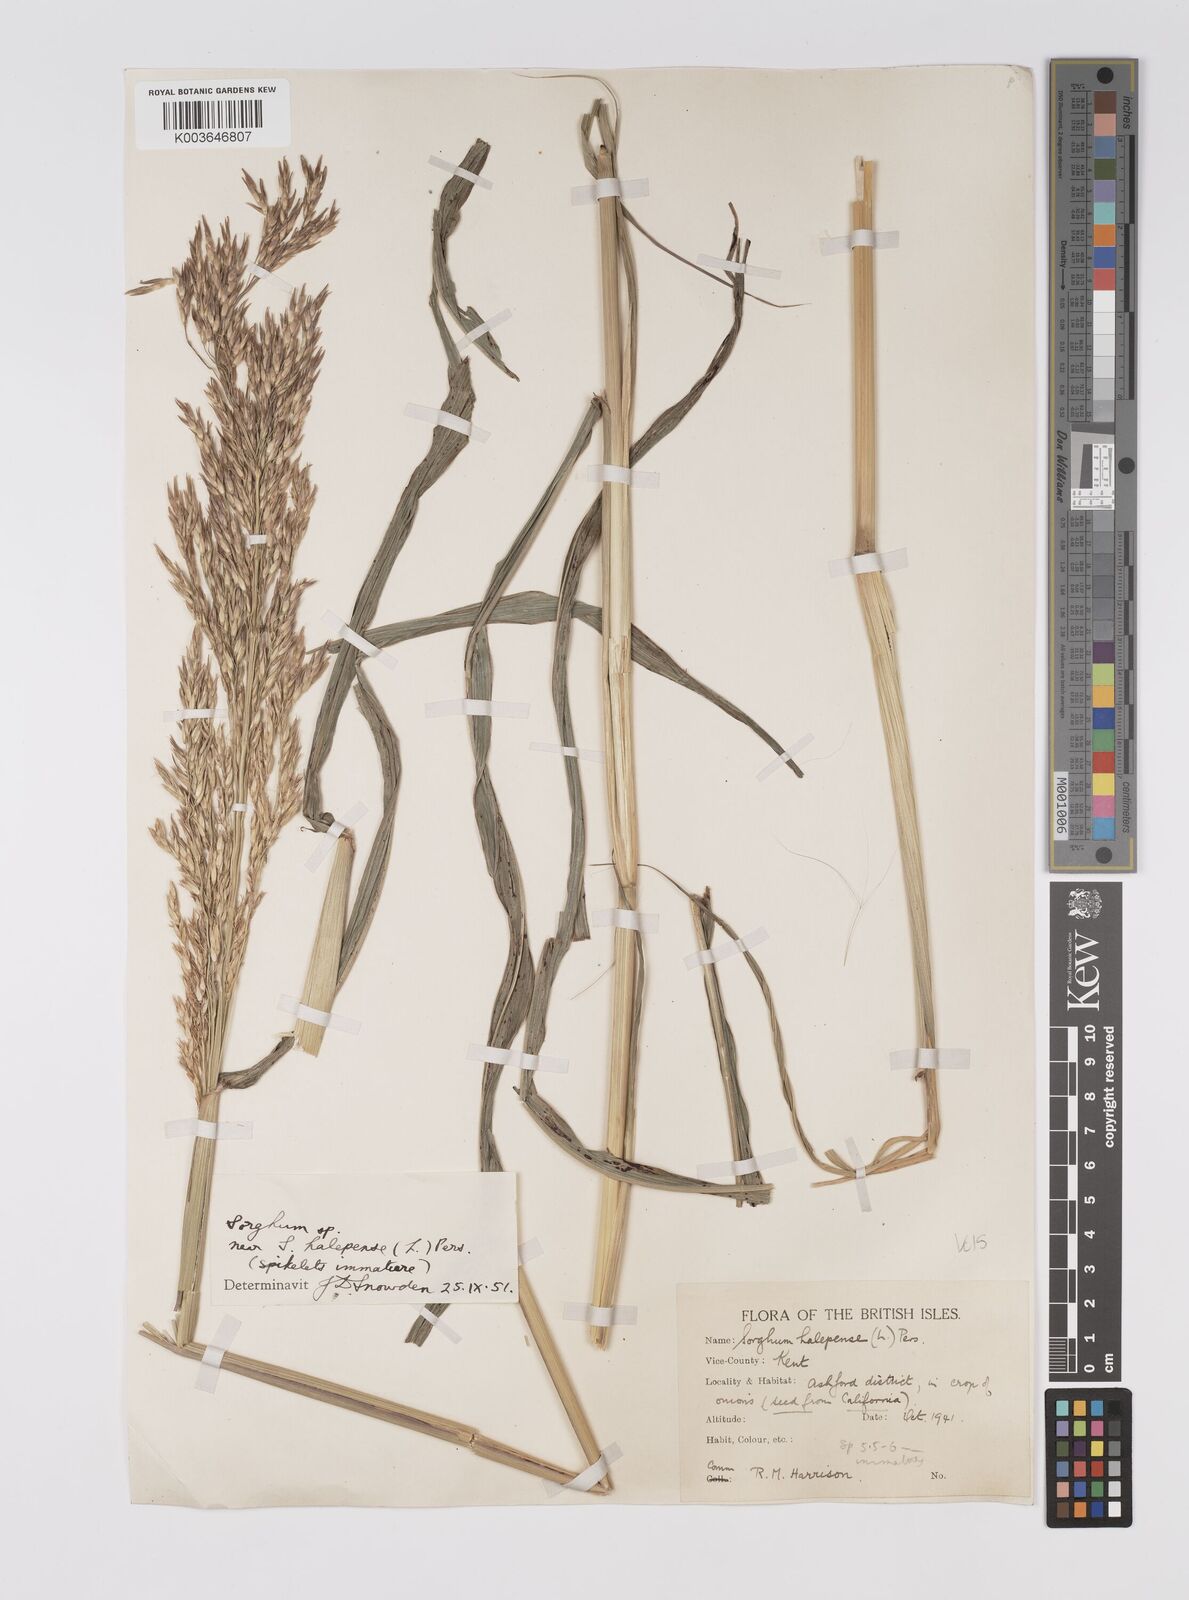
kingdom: Plantae
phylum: Tracheophyta
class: Liliopsida
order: Poales
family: Poaceae
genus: Sorghum
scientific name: Sorghum halepense
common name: Johnson-grass
